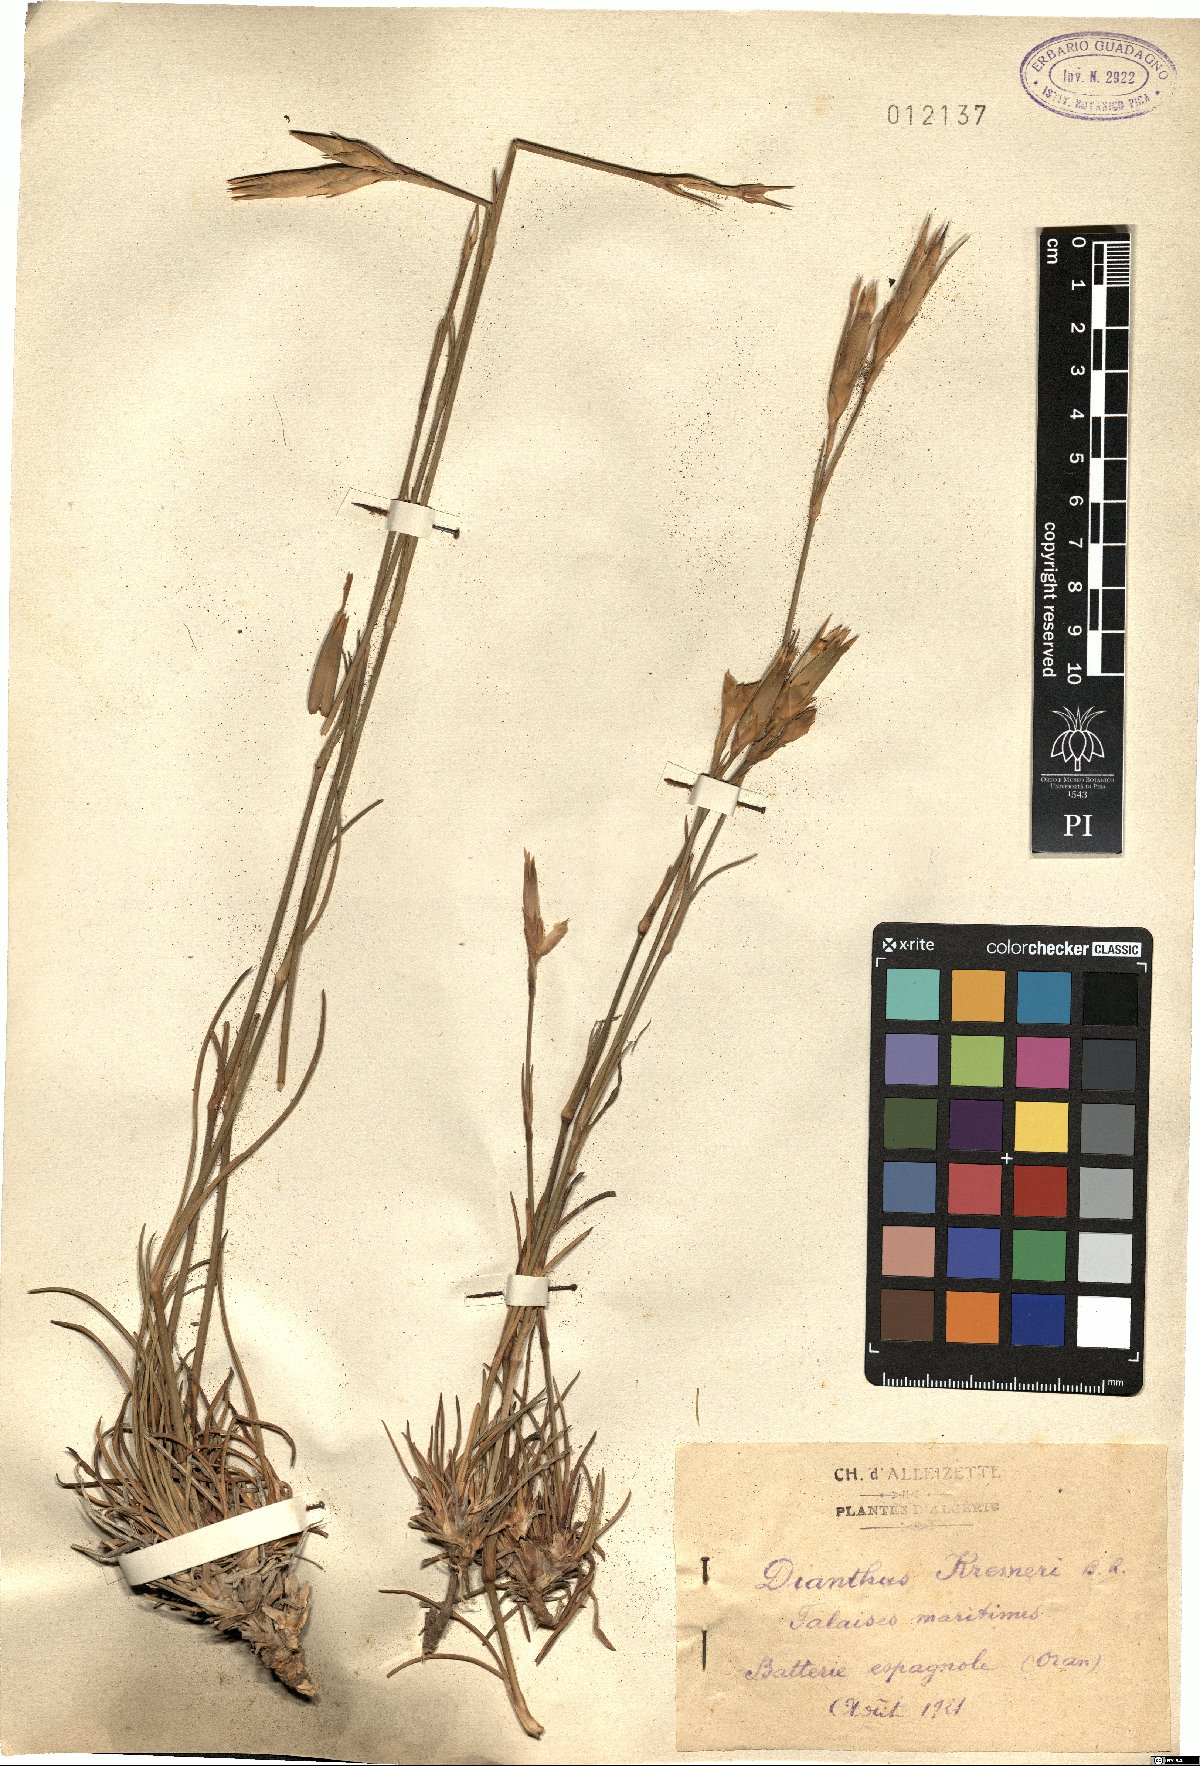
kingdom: Plantae
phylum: Tracheophyta
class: Magnoliopsida
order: Caryophyllales
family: Caryophyllaceae
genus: Dianthus
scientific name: Dianthus siculus
